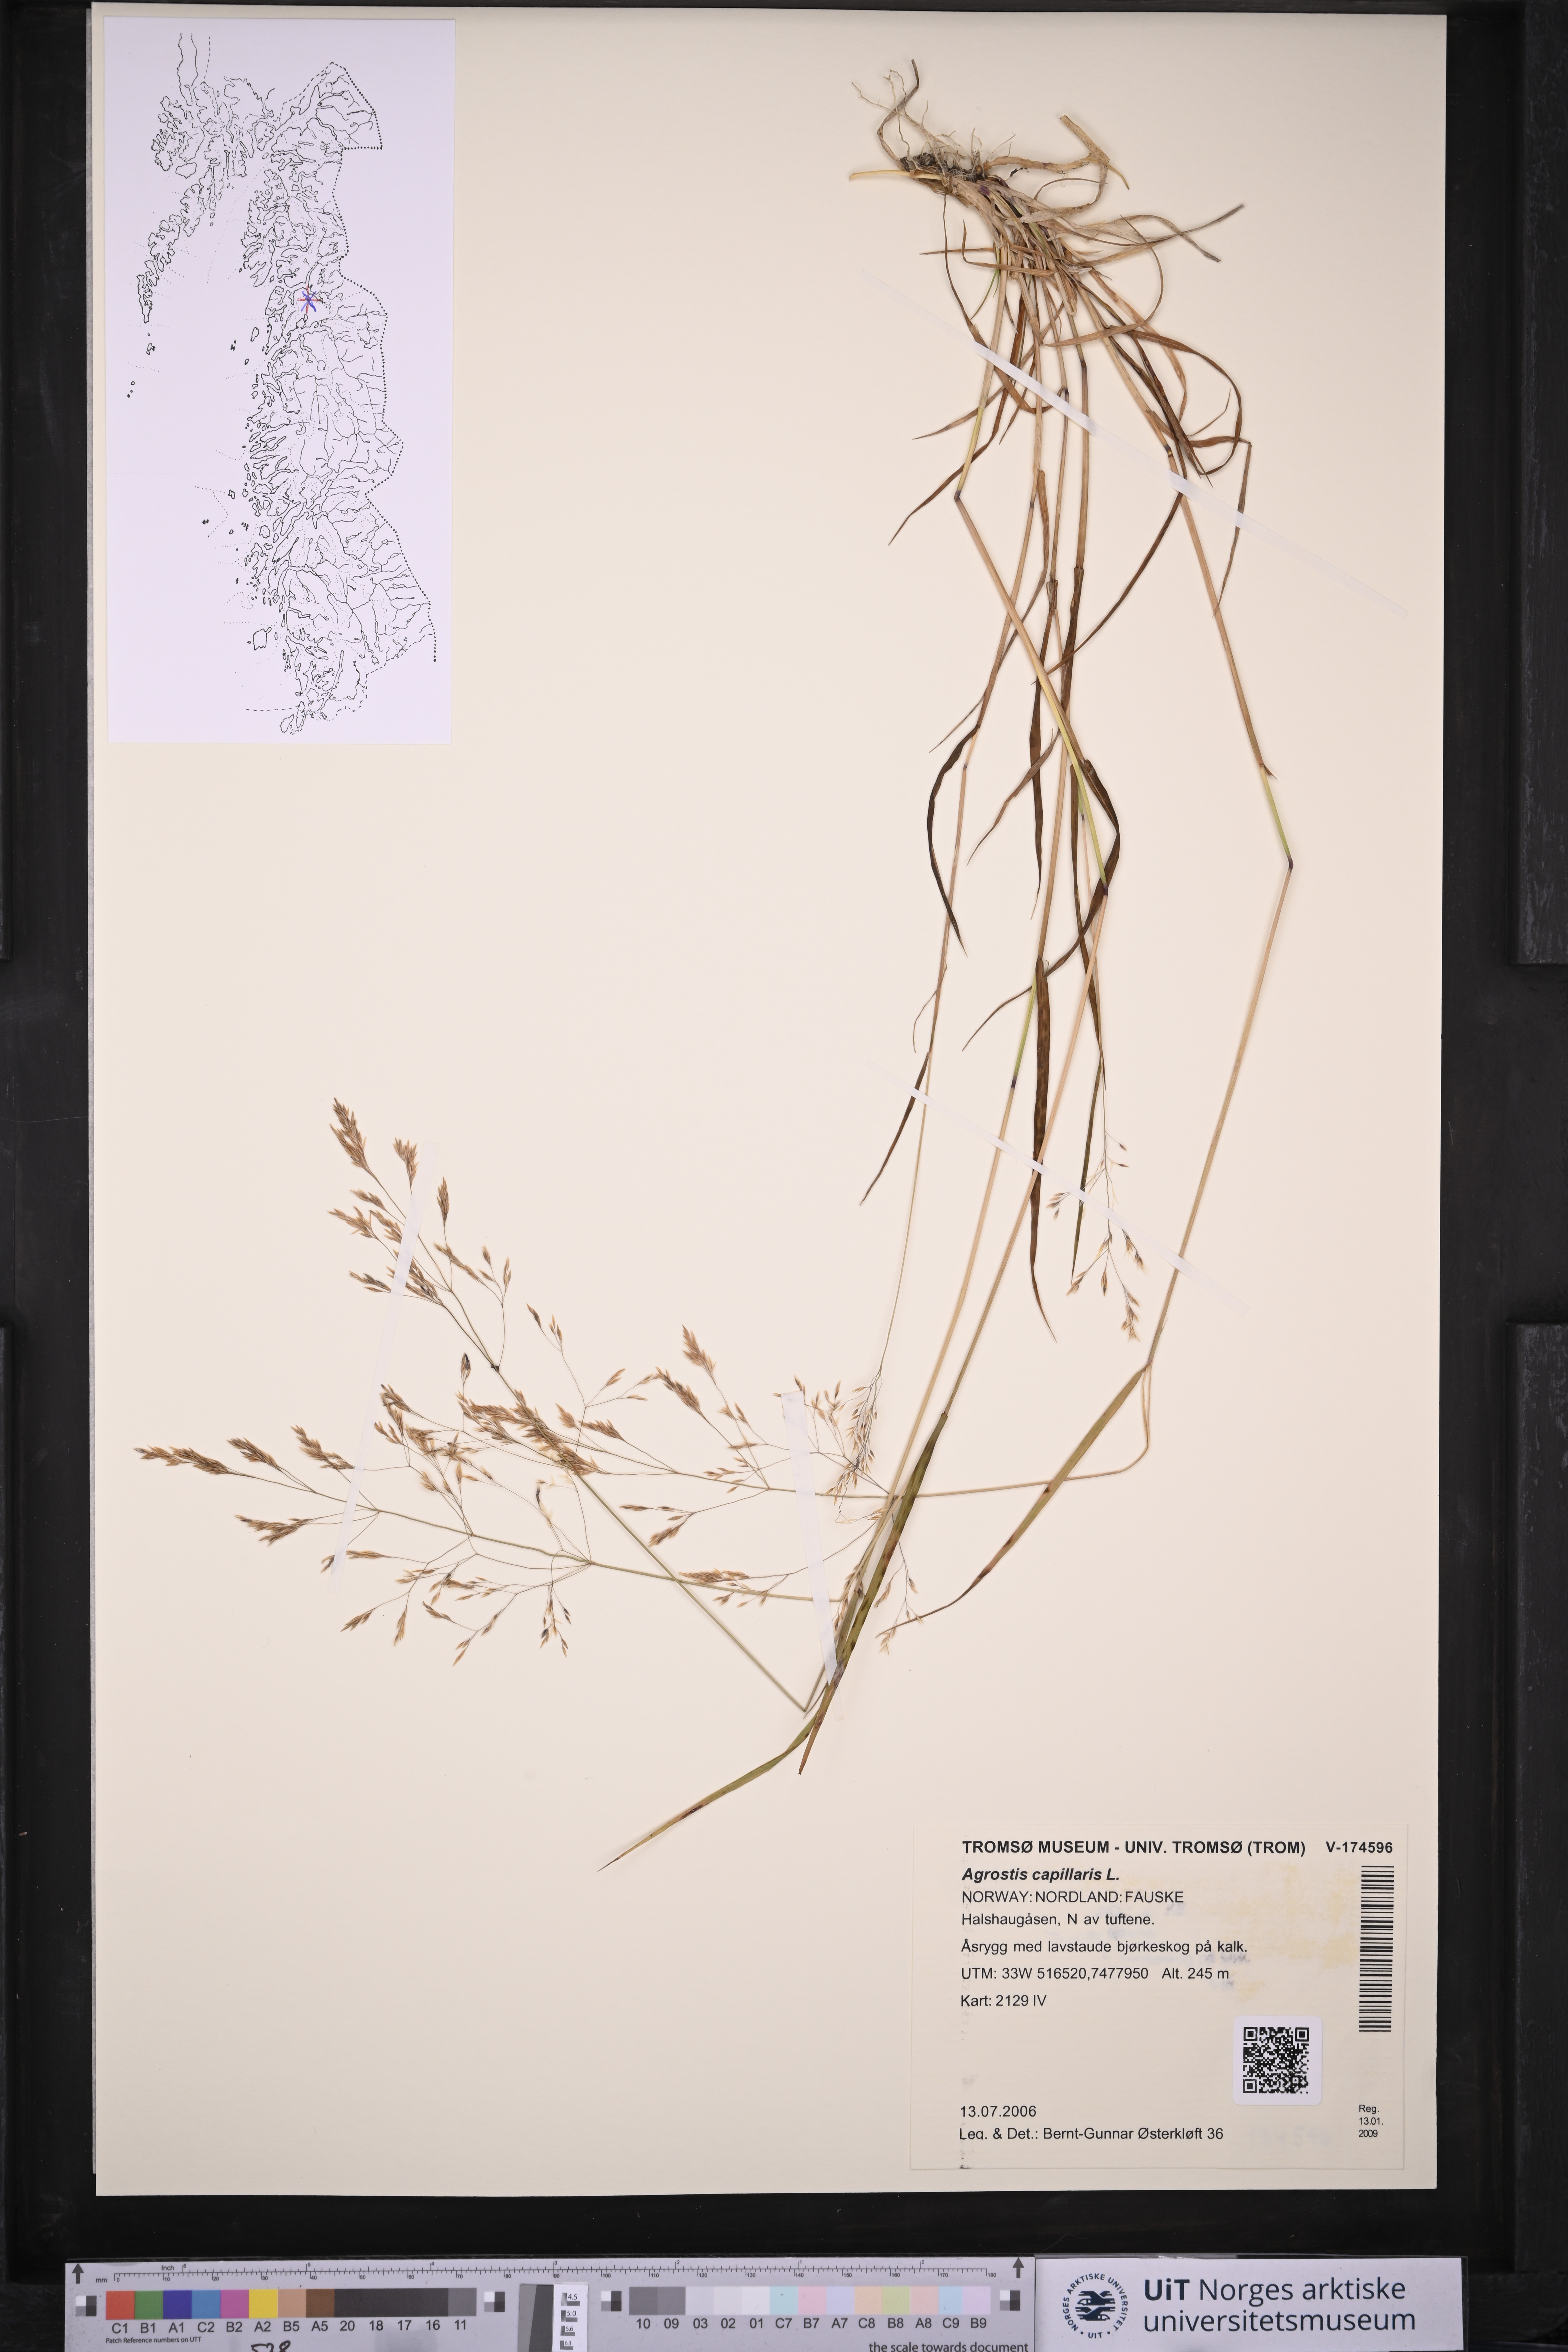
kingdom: Plantae
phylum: Tracheophyta
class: Liliopsida
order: Poales
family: Poaceae
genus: Agrostis
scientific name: Agrostis capillaris
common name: Colonial bentgrass
